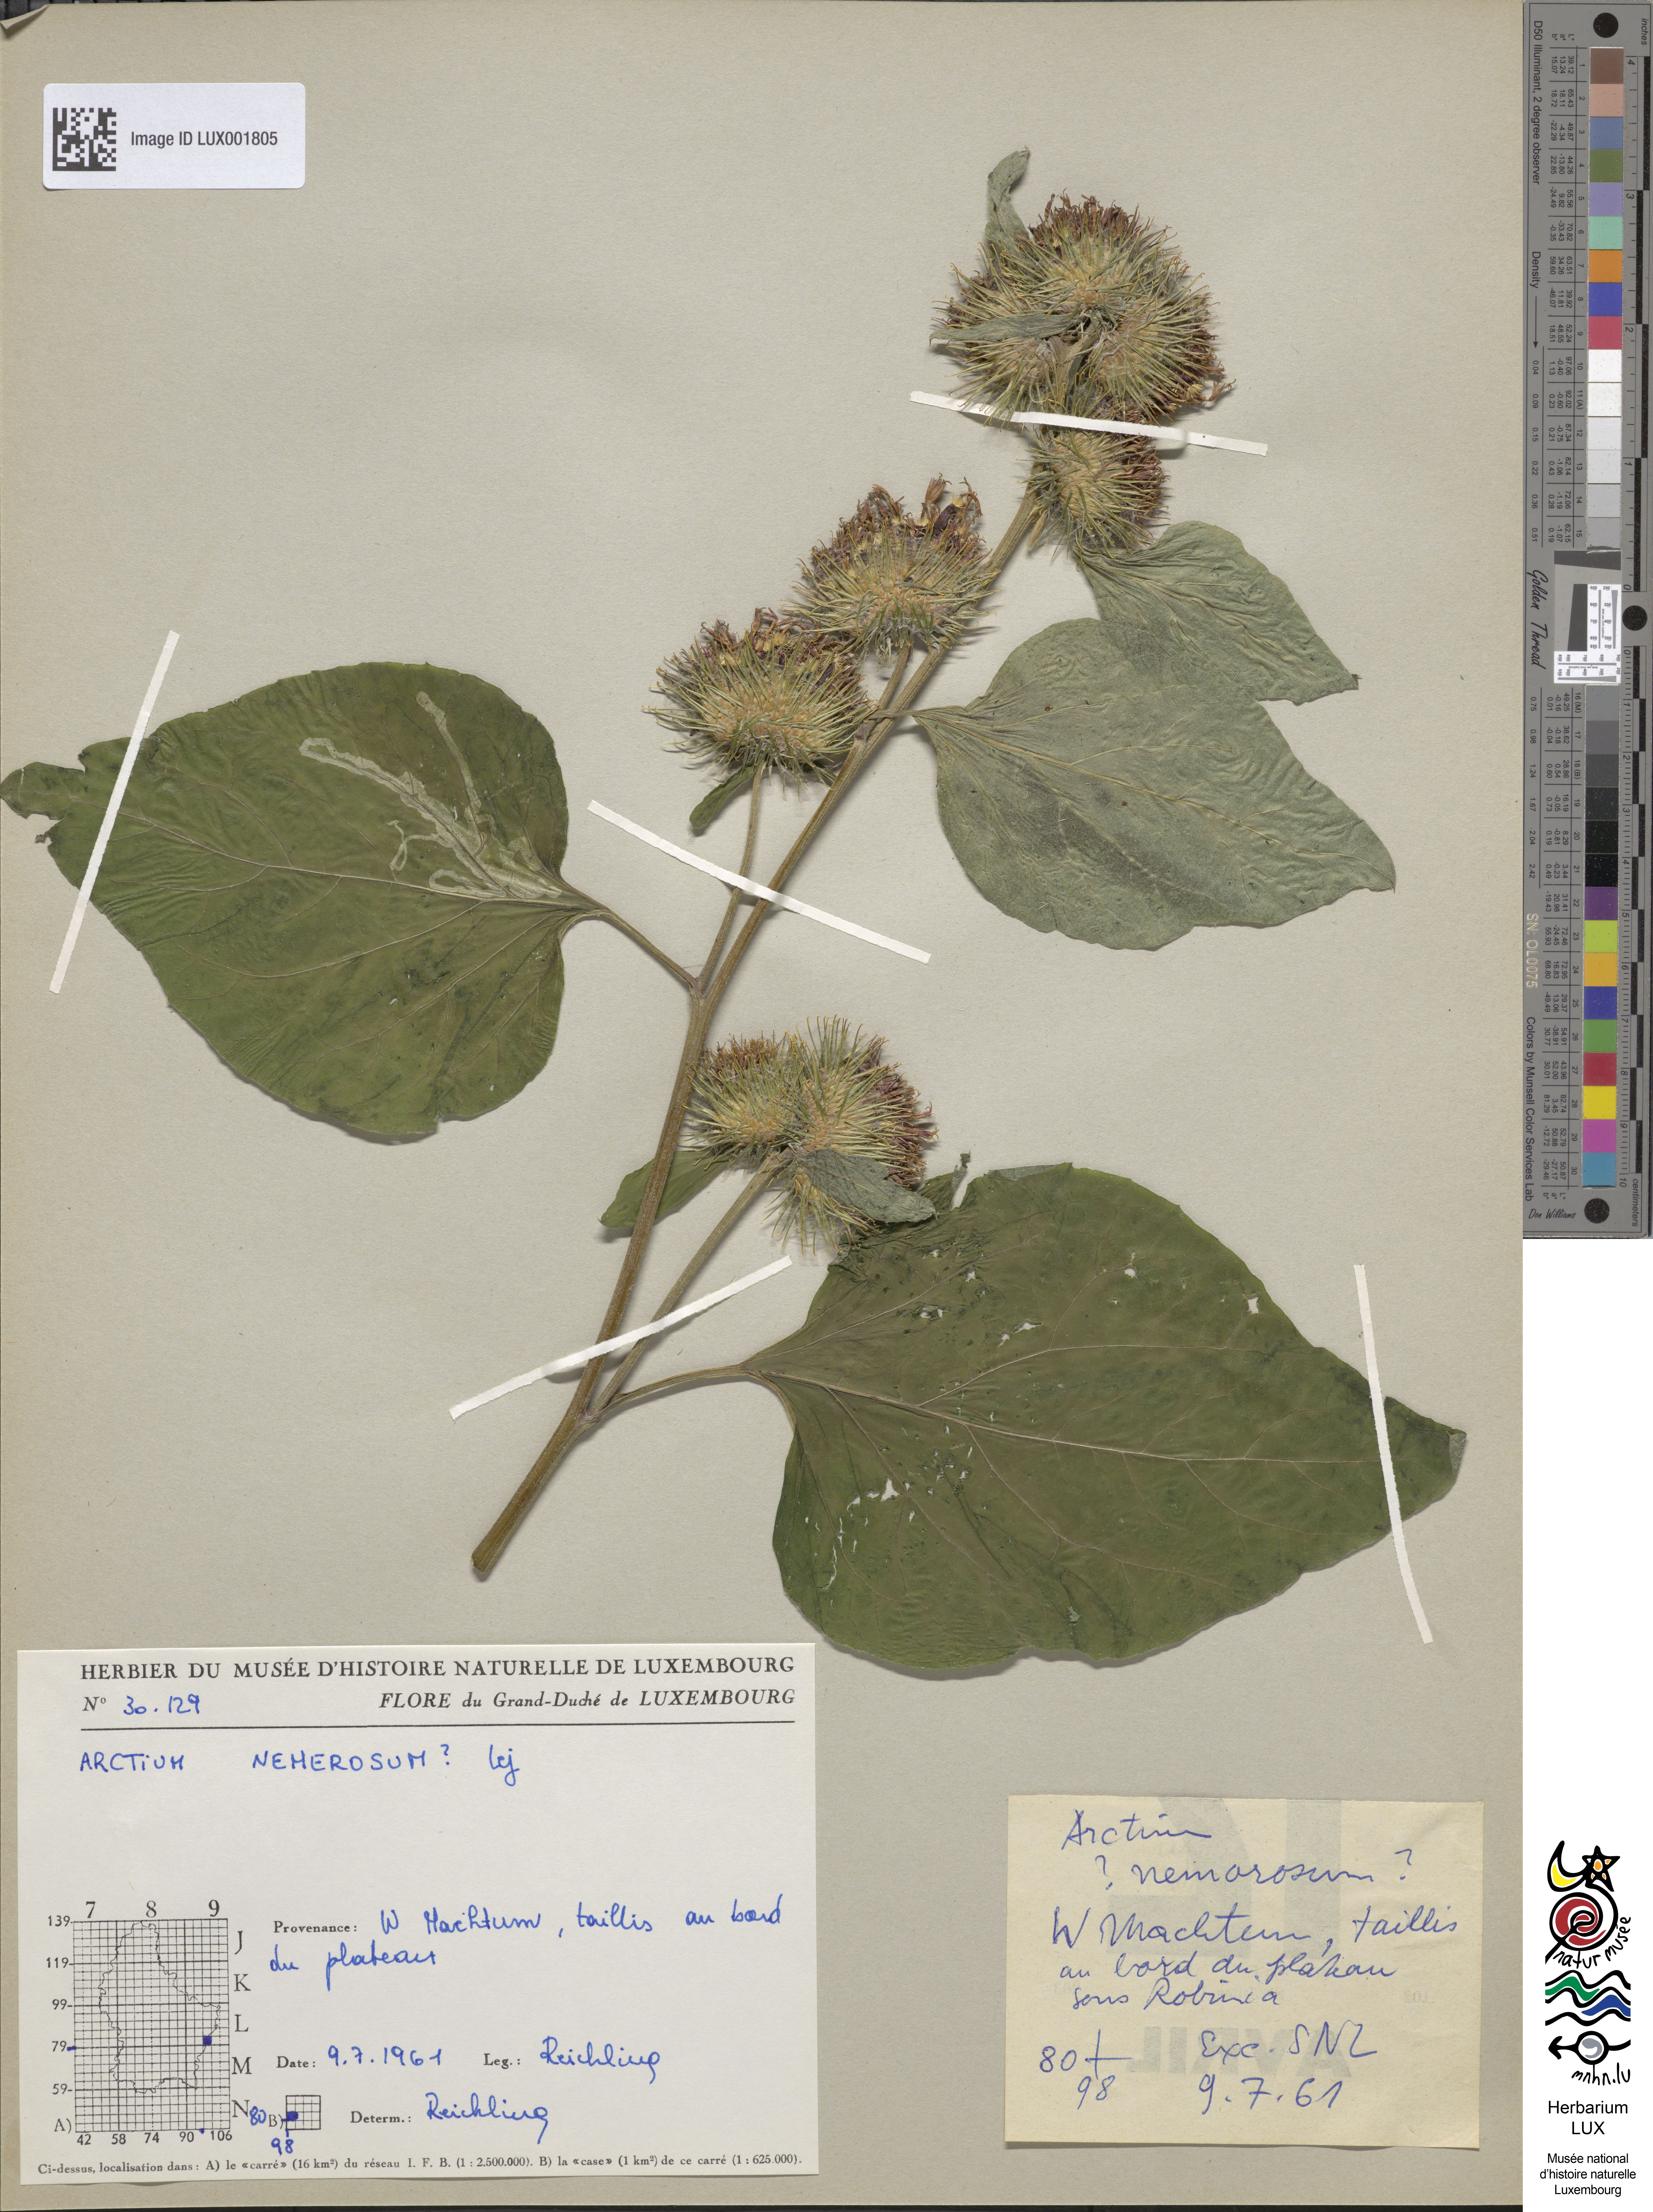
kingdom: Plantae
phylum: Tracheophyta
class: Magnoliopsida
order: Asterales
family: Asteraceae
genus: Arctium
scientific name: Arctium nemorosum
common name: Wood burdock
